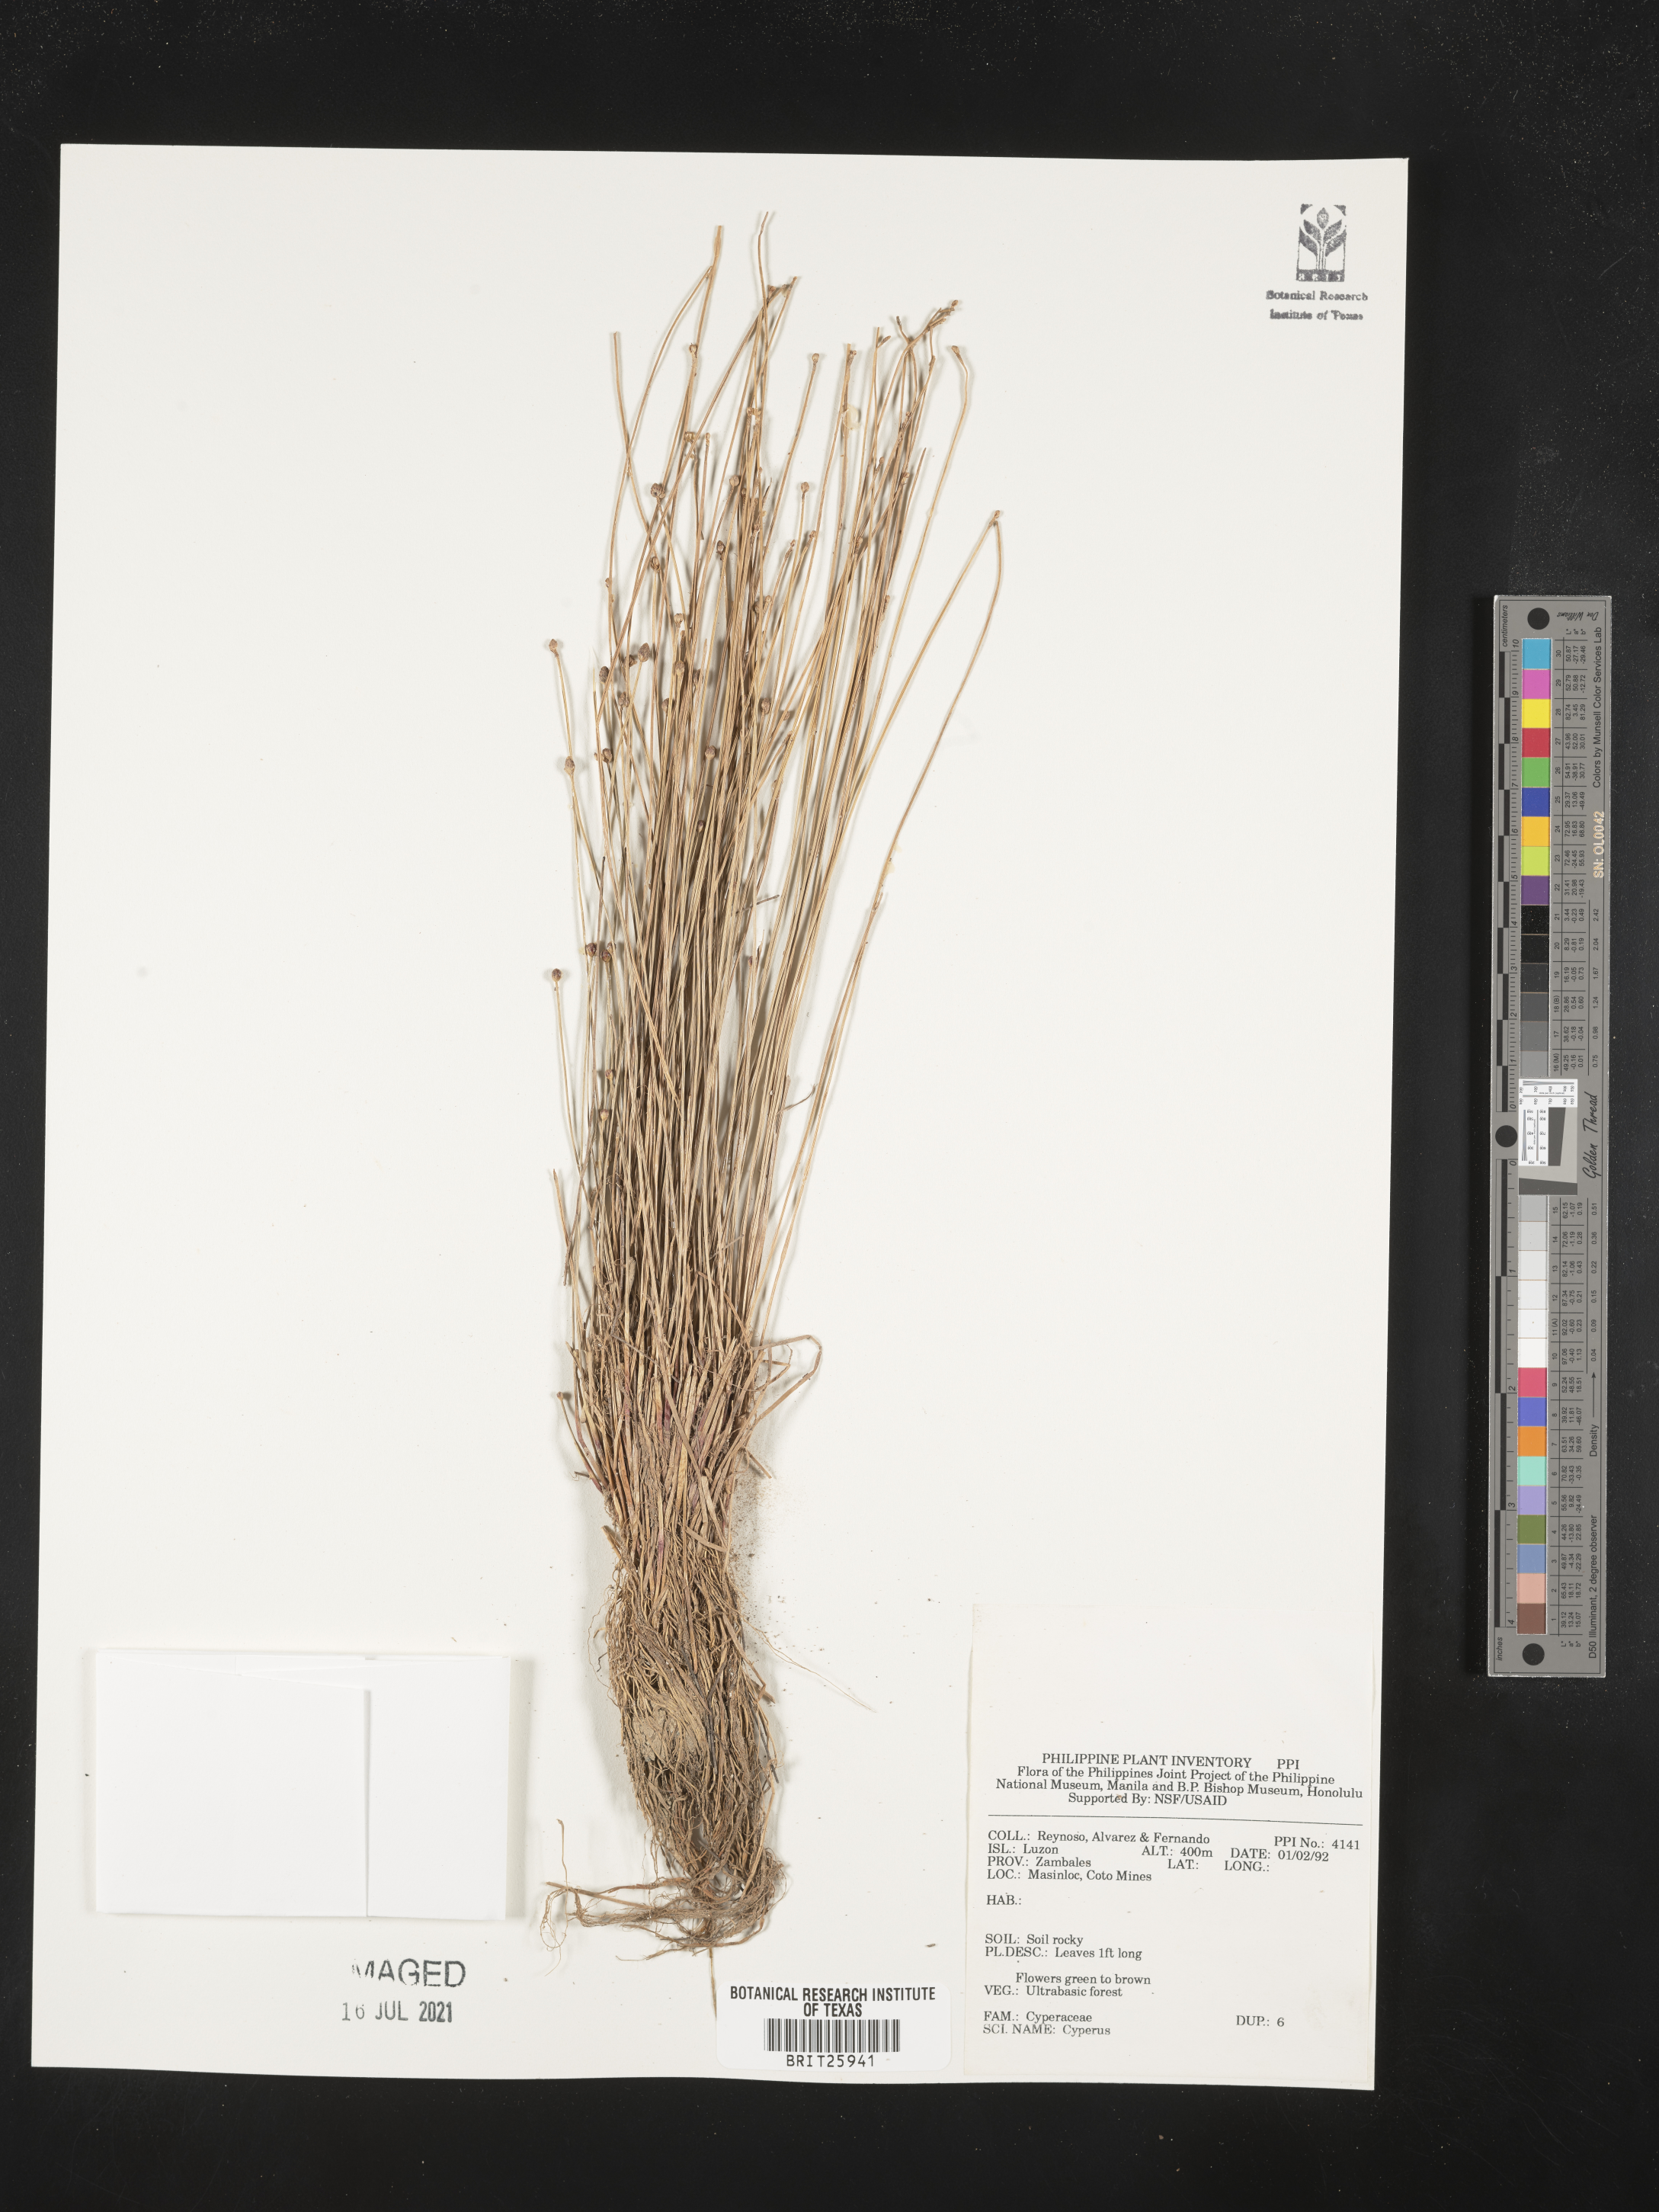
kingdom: Plantae
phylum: Tracheophyta
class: Liliopsida
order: Poales
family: Cyperaceae
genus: Cyperus
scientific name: Cyperus
